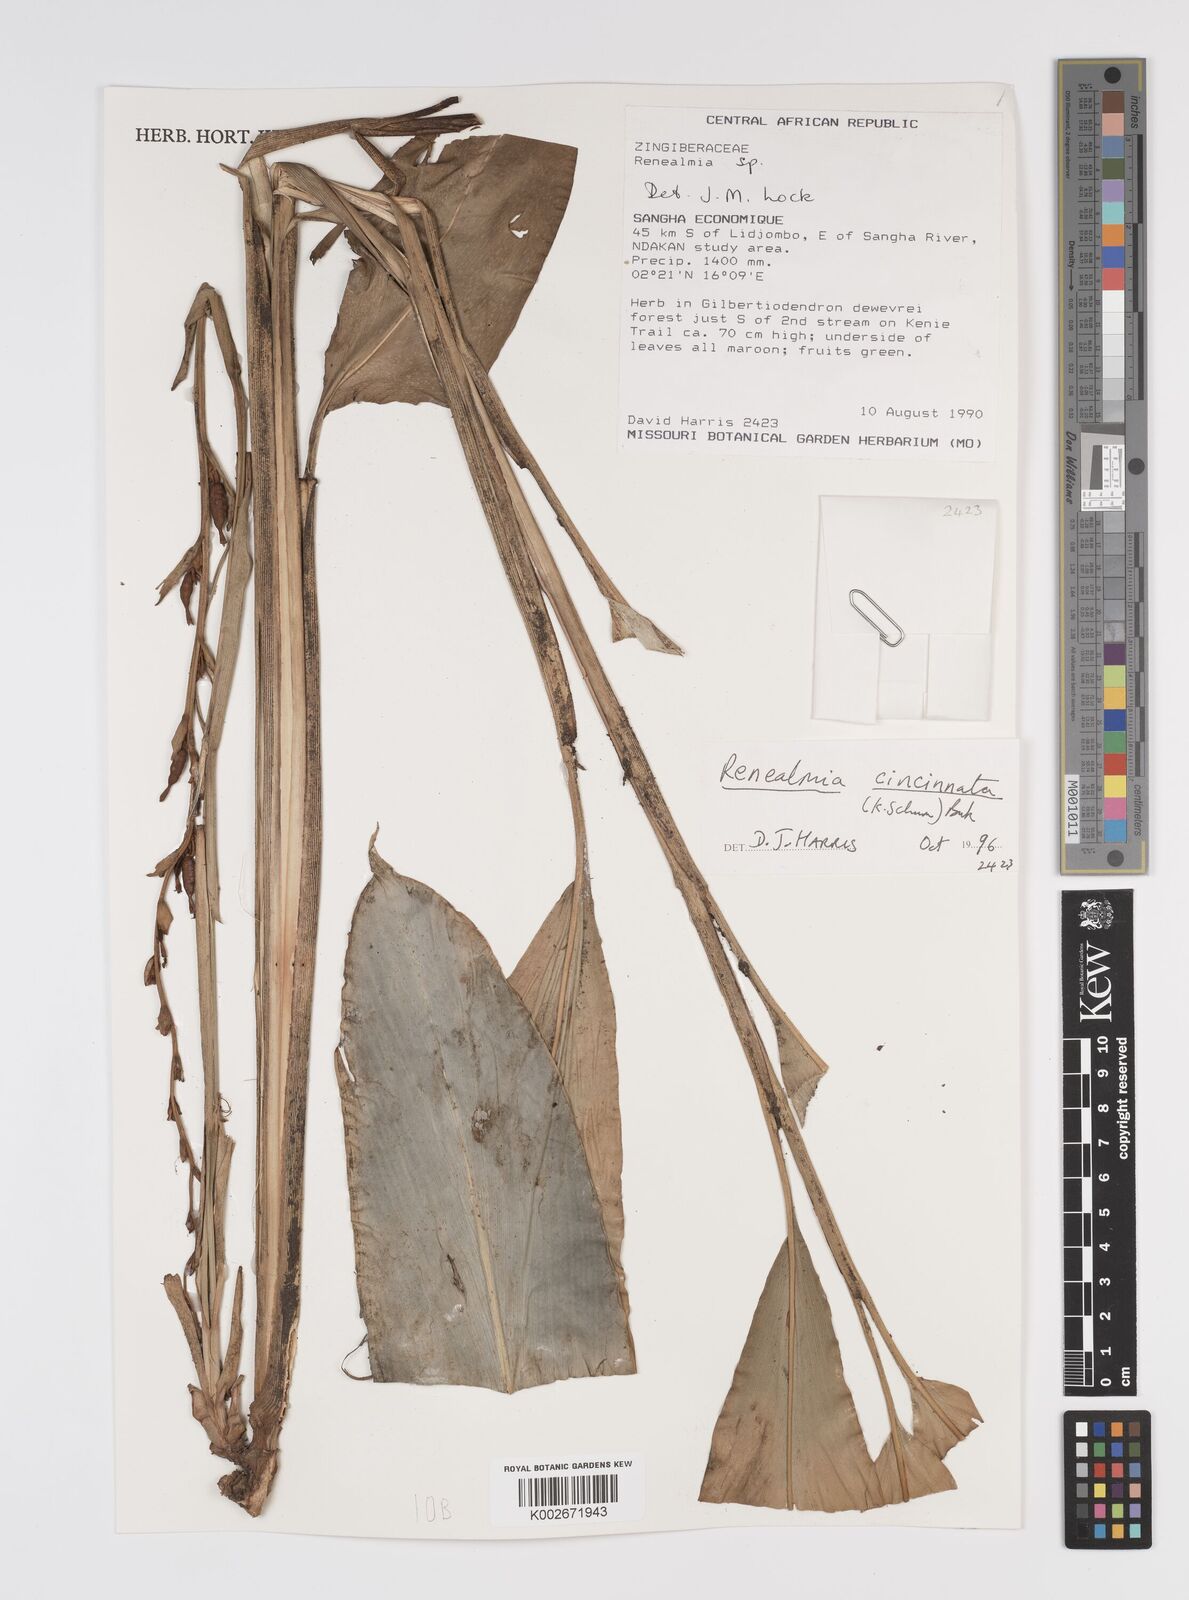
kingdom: Plantae
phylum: Tracheophyta
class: Liliopsida
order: Zingiberales
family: Zingiberaceae
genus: Renealmia
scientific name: Renealmia
